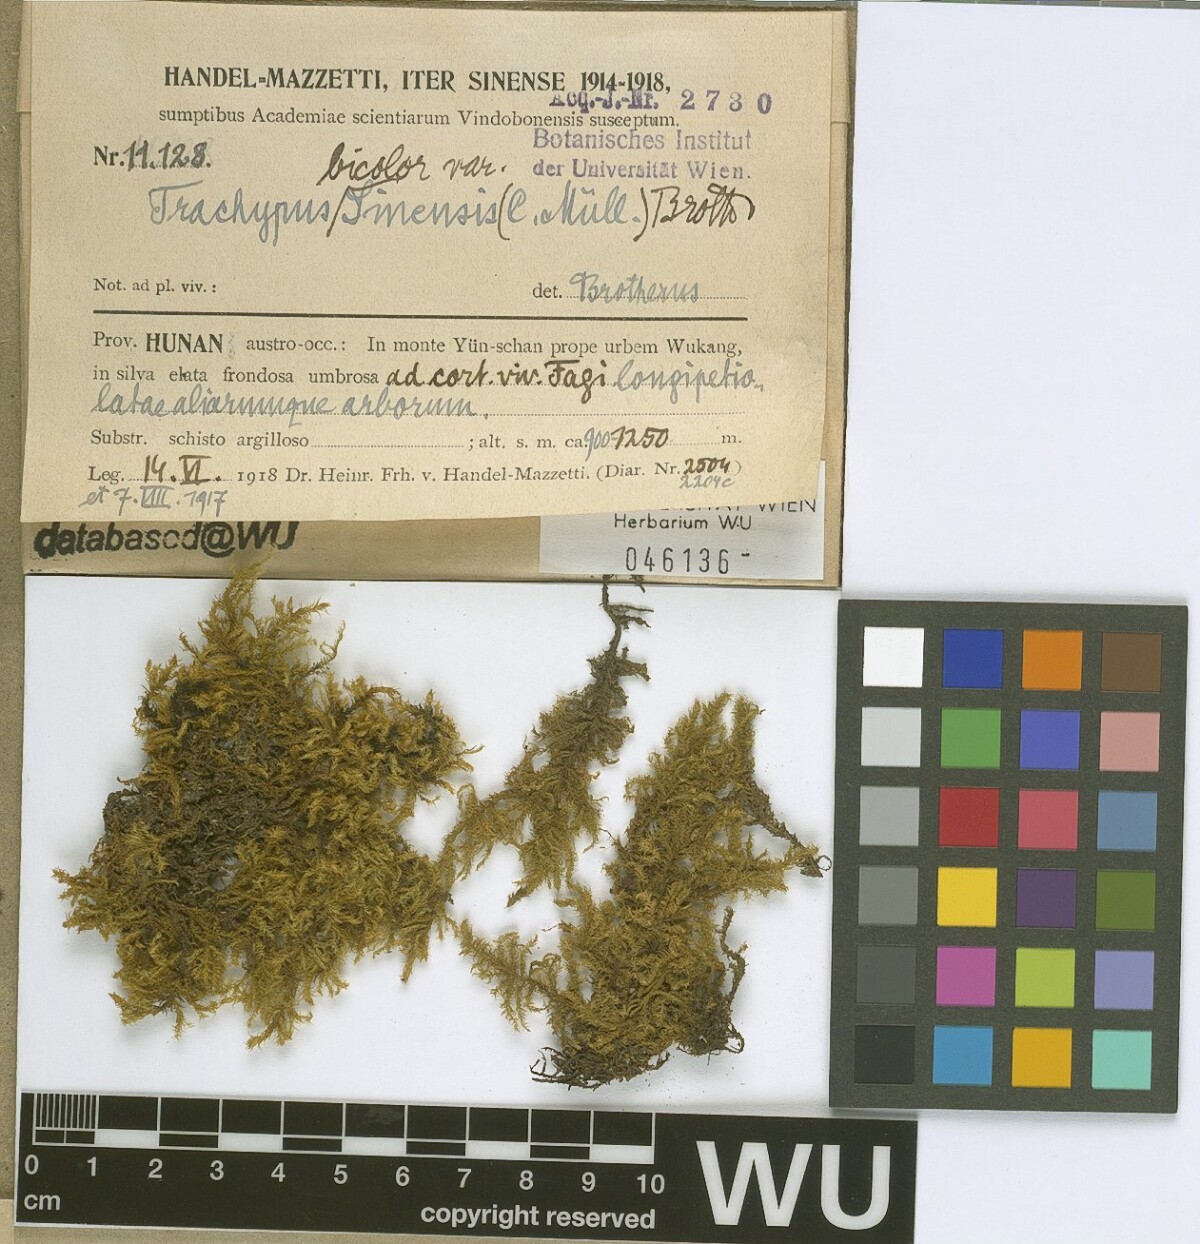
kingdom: Plantae
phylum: Bryophyta
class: Bryopsida
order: Hypnales
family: Meteoriaceae
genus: Trachypus
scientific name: Trachypus bicolor
